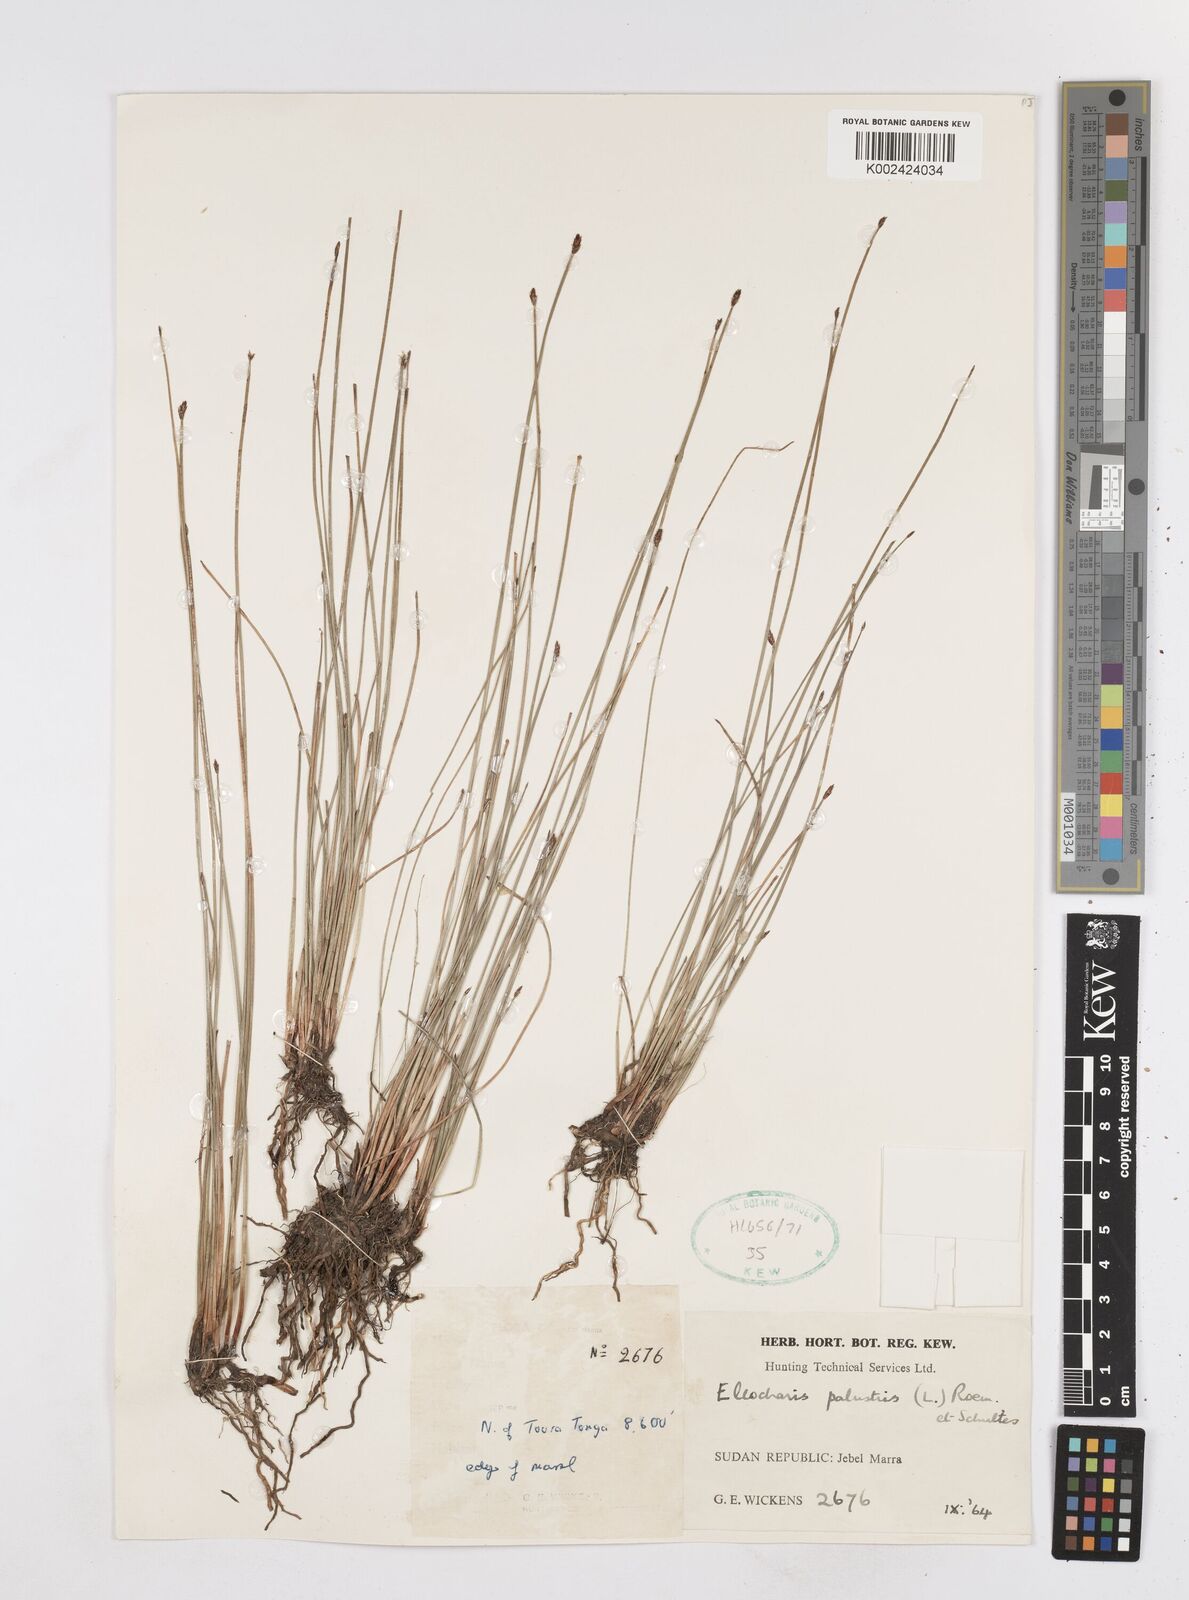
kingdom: Plantae
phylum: Tracheophyta
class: Liliopsida
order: Poales
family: Cyperaceae
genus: Eleocharis
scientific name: Eleocharis palustris
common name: Common spike-rush
